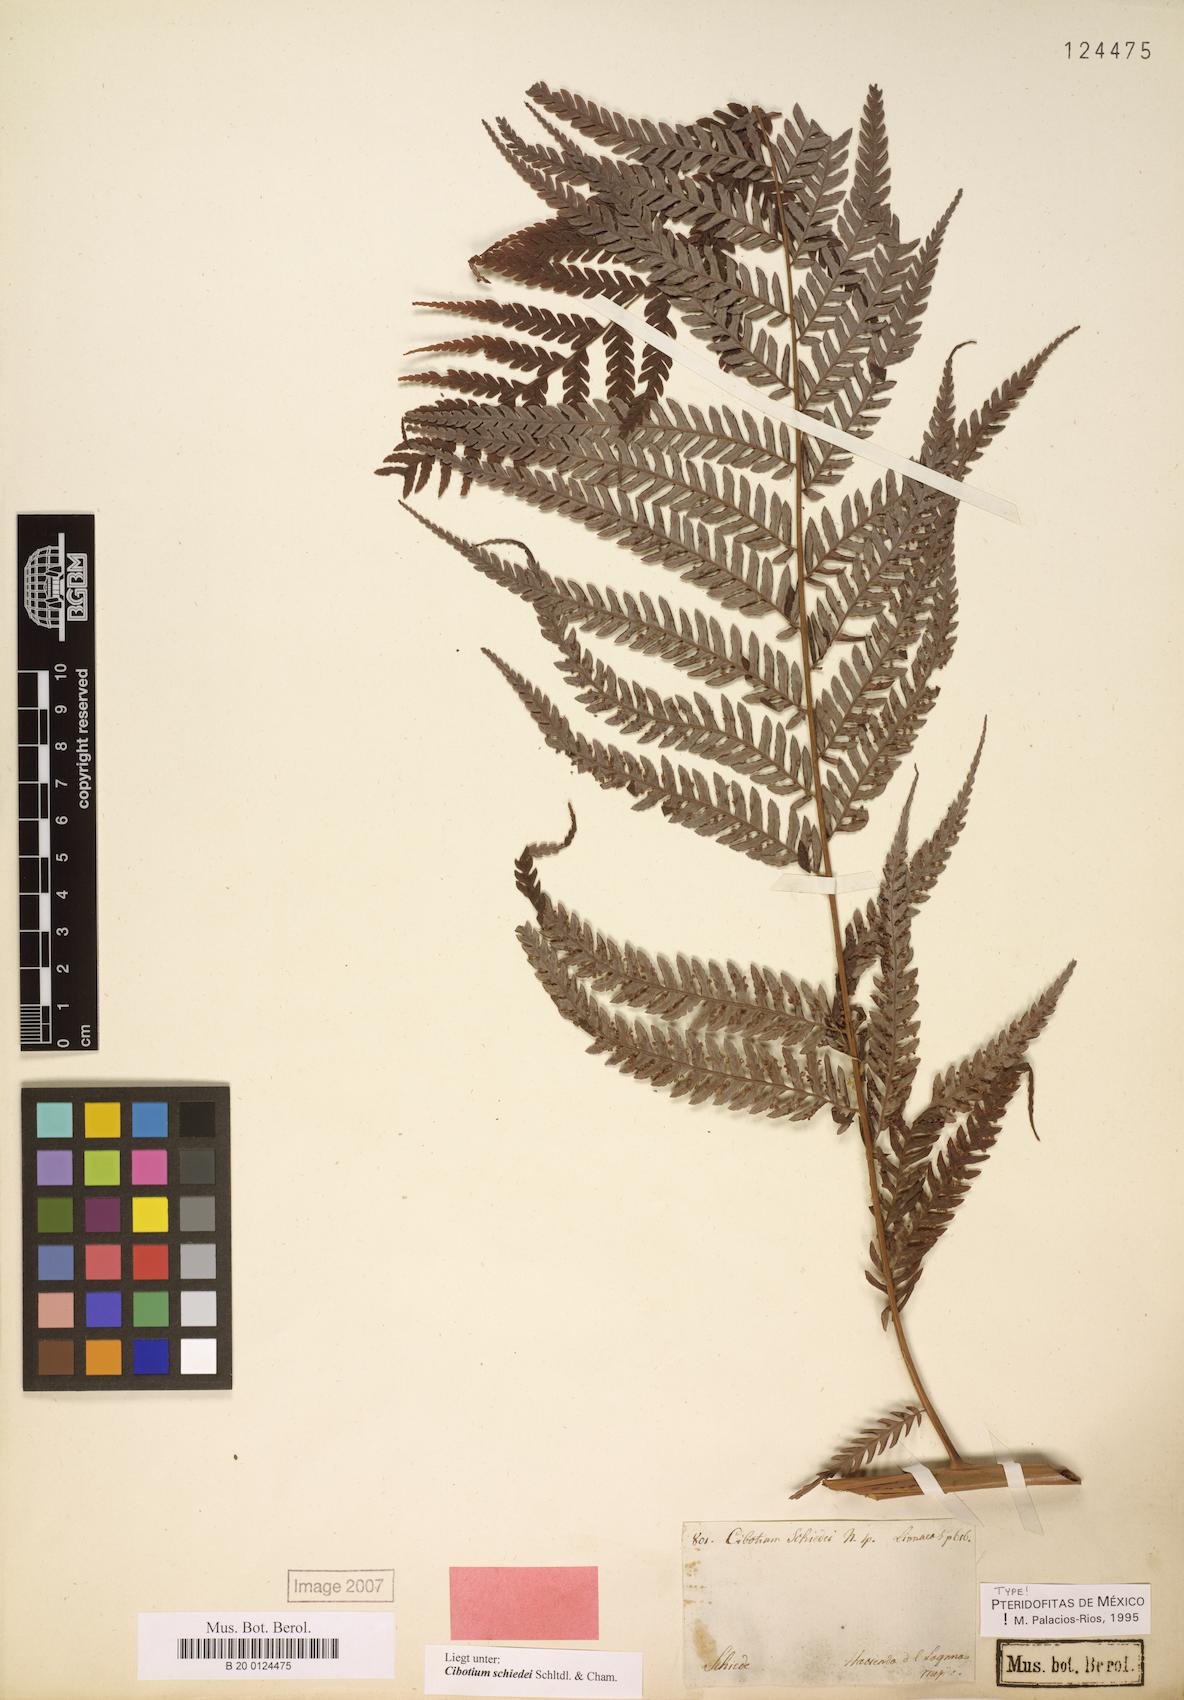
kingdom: Plantae
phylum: Tracheophyta
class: Polypodiopsida
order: Cyatheales
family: Cibotiaceae
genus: Cibotium
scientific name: Cibotium schiedei
